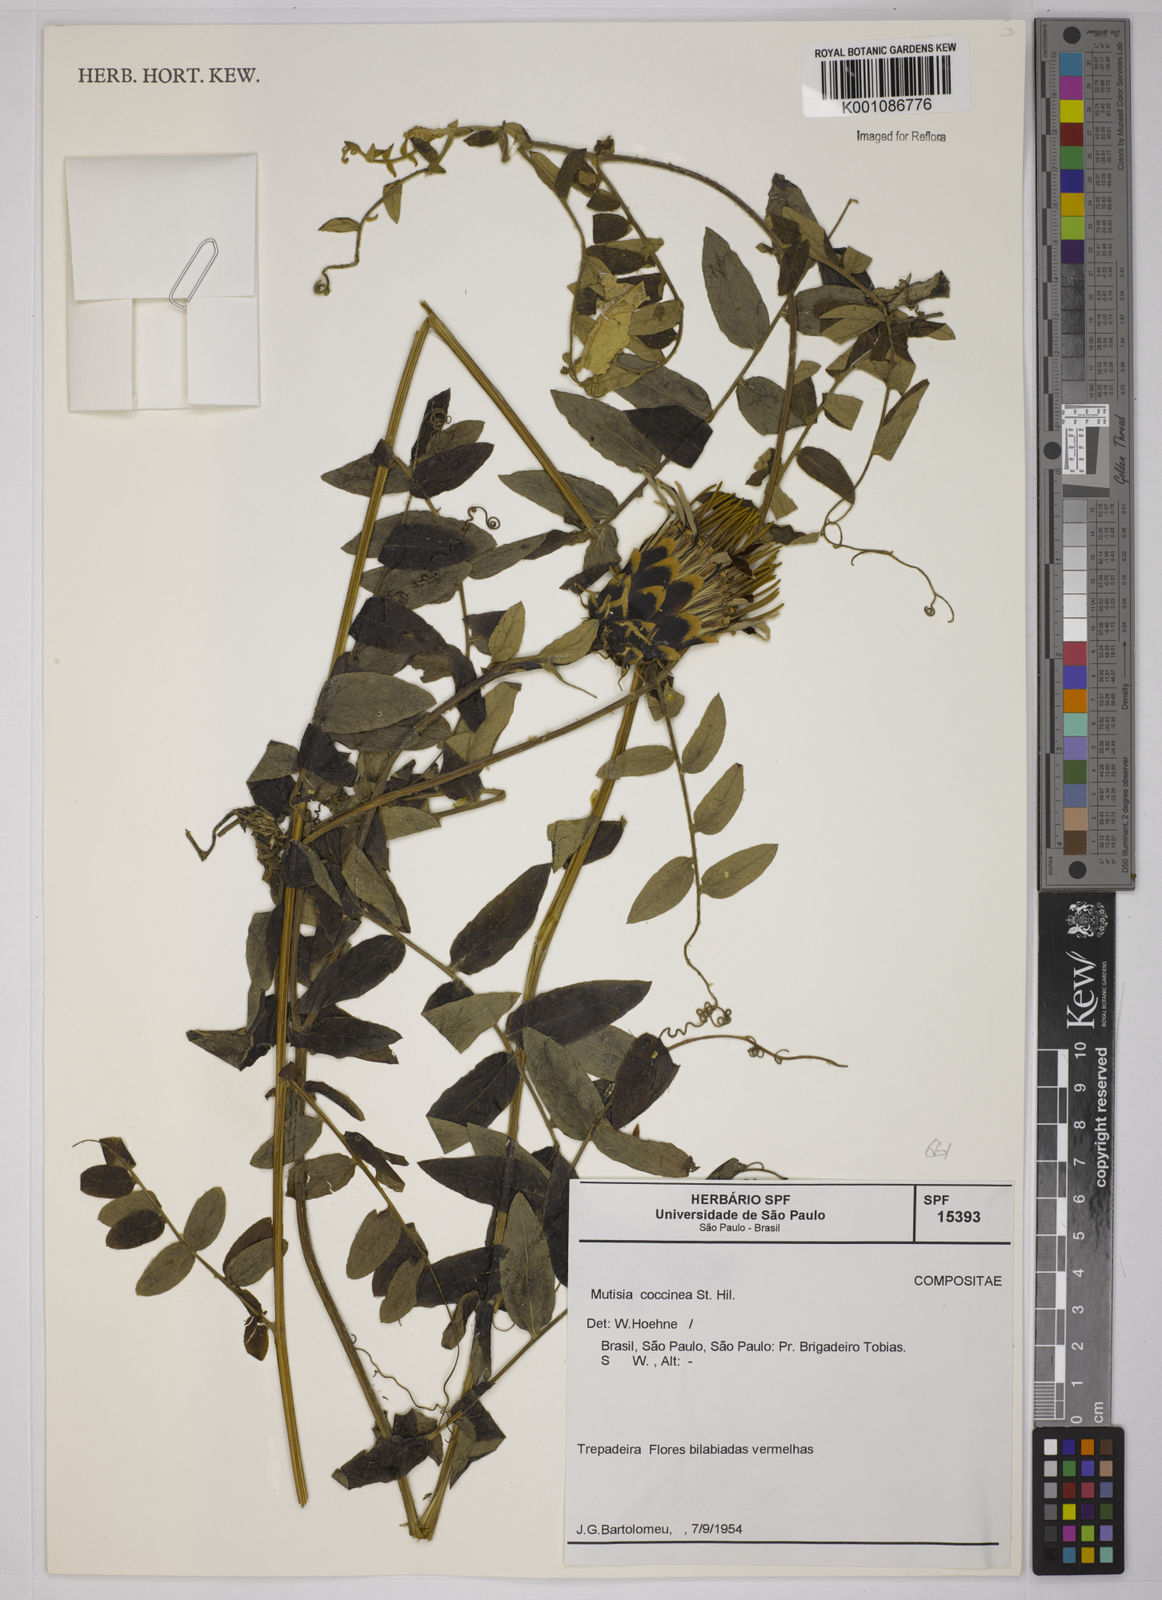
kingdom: Plantae
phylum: Tracheophyta
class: Magnoliopsida
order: Asterales
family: Asteraceae
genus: Mutisia
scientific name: Mutisia coccinea
